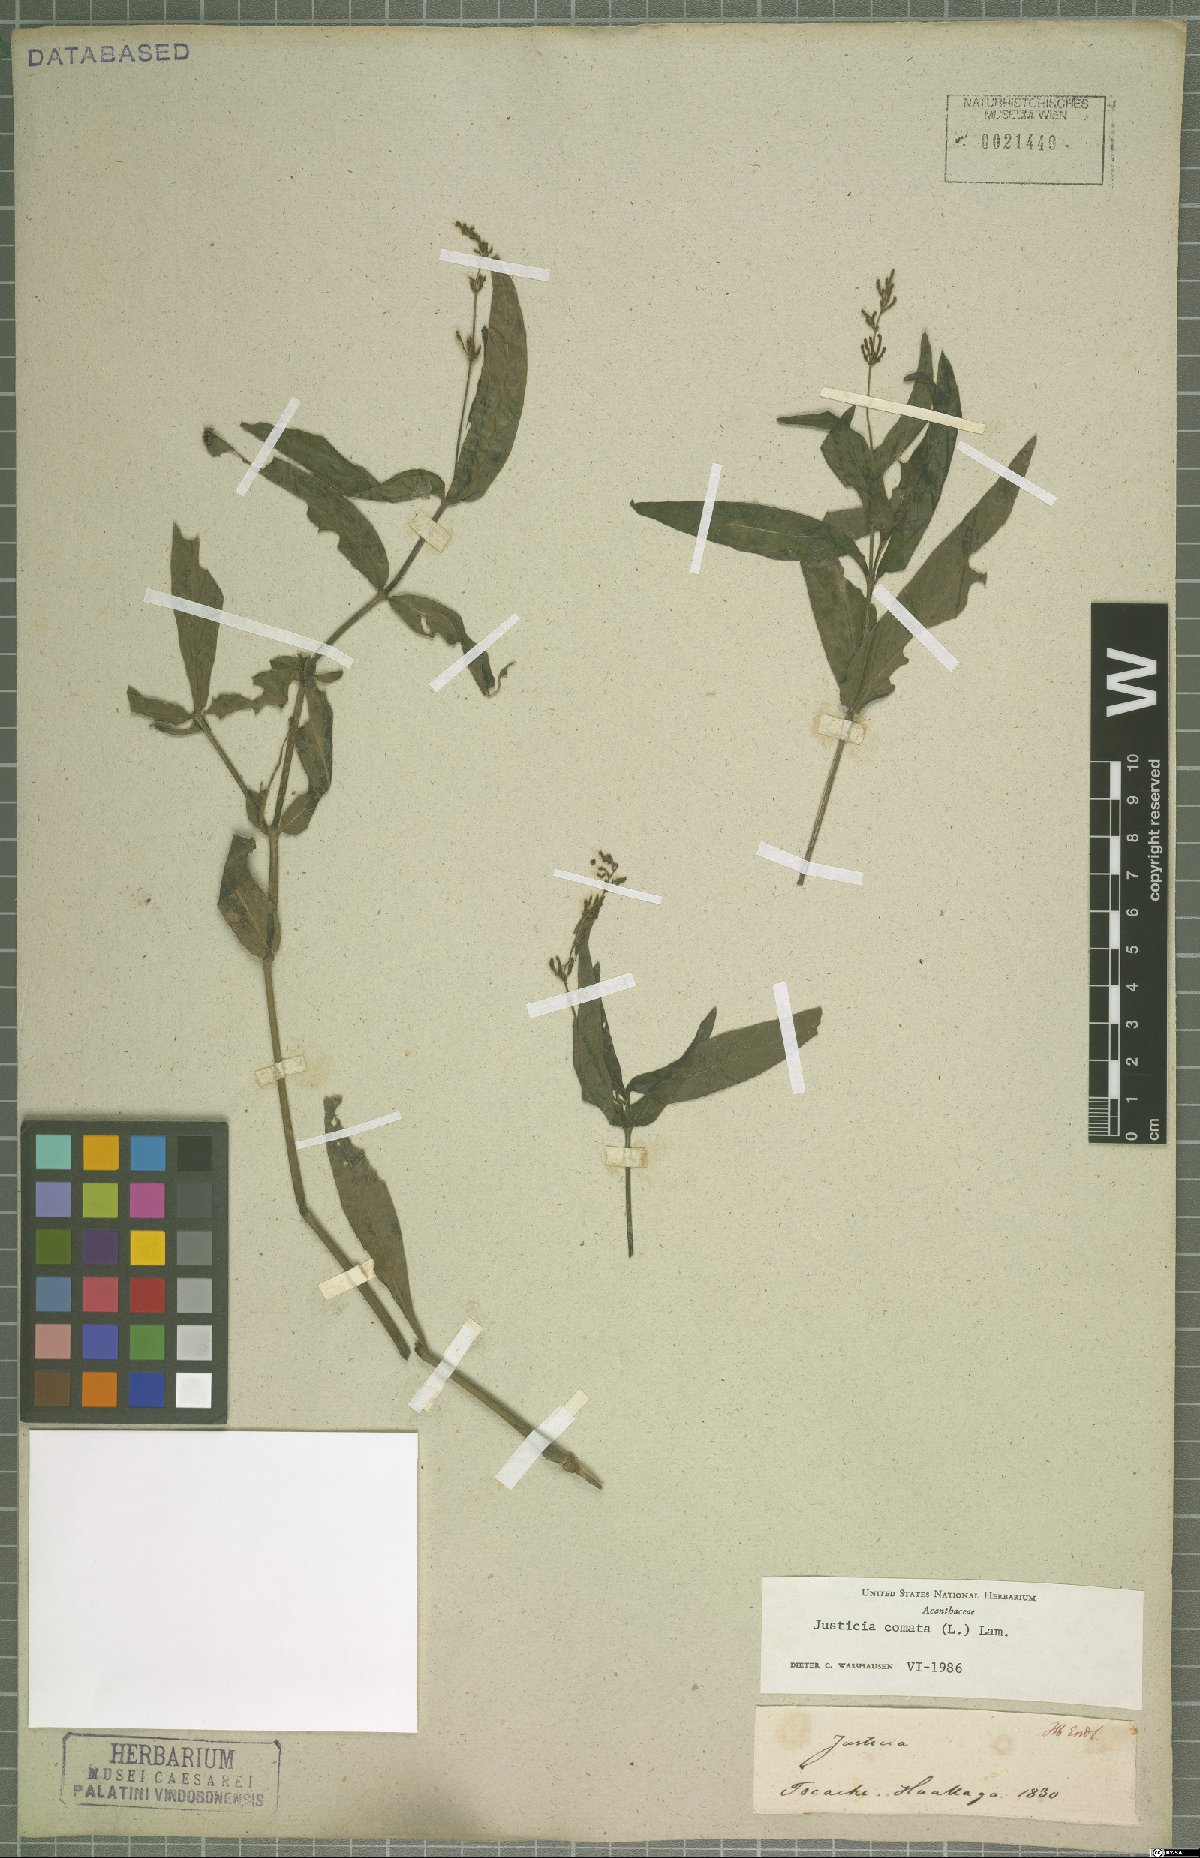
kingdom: Plantae
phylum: Tracheophyta
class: Magnoliopsida
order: Lamiales
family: Acanthaceae
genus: Dianthera
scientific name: Dianthera comata
